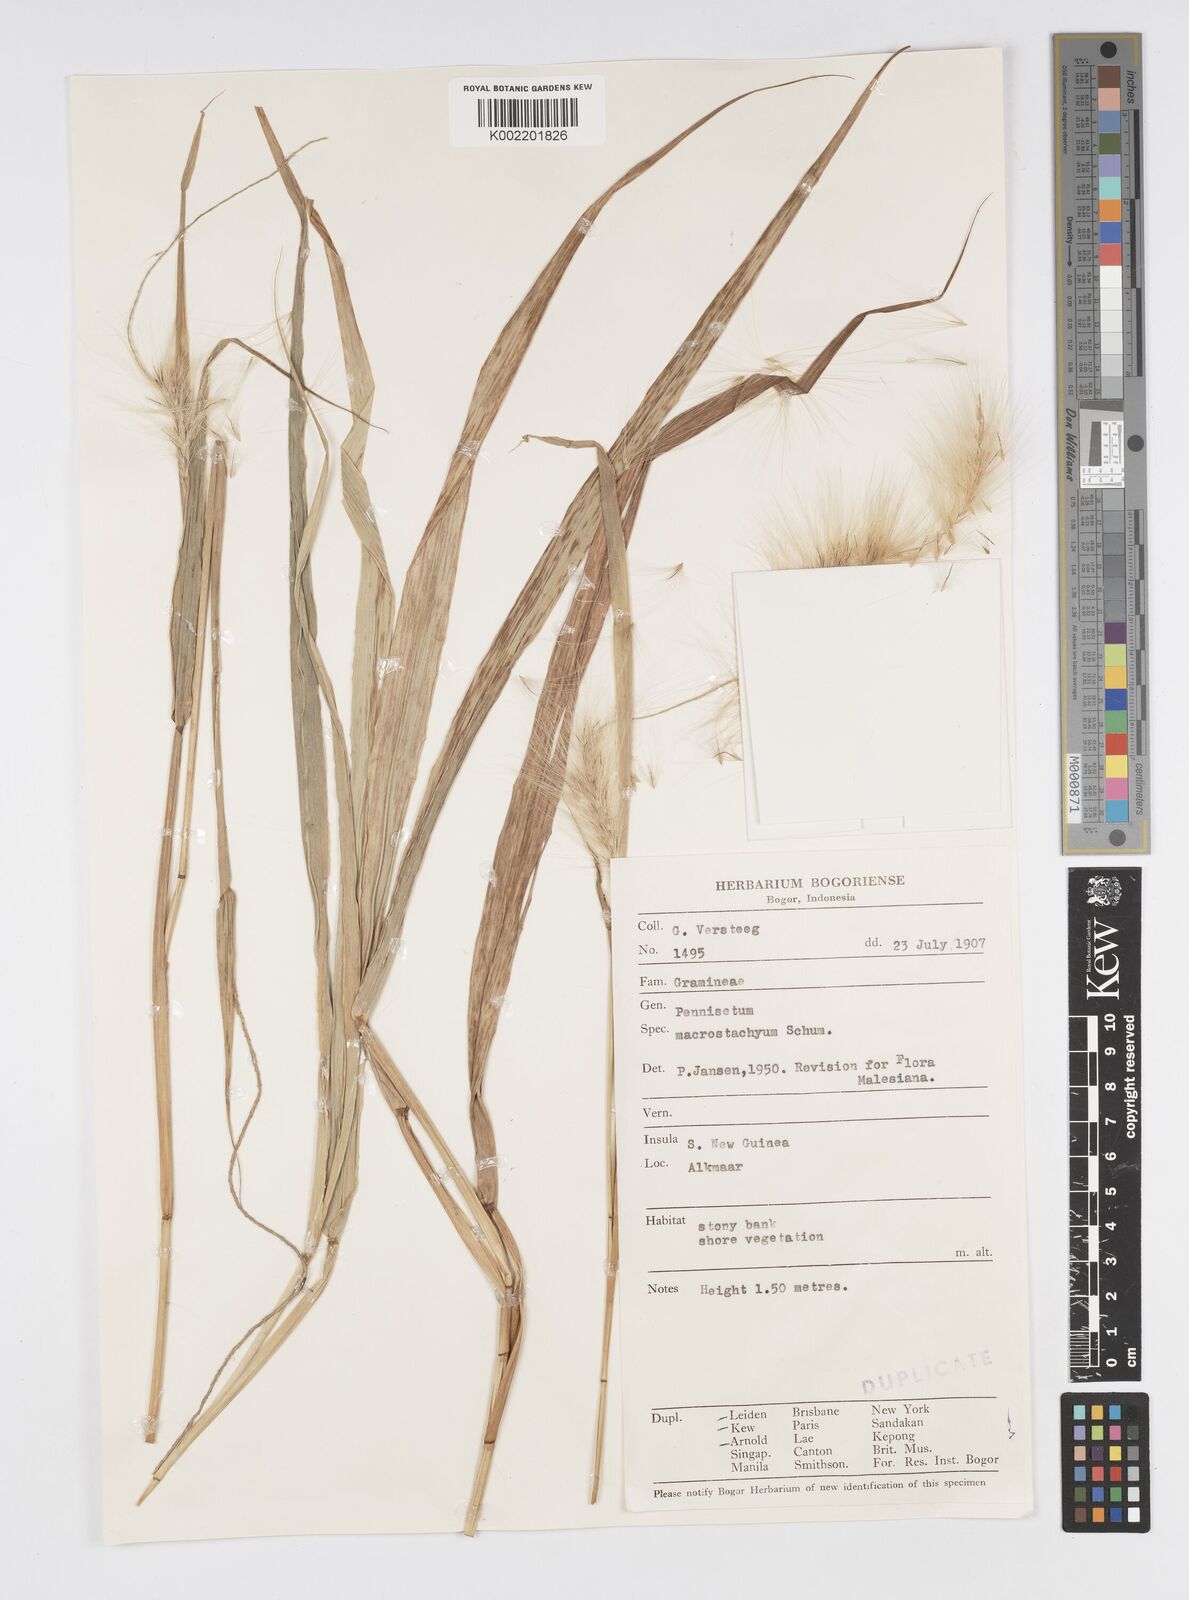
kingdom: Plantae
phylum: Tracheophyta
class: Liliopsida
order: Poales
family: Poaceae
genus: Cenchrus
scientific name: Cenchrus purpureus
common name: Elephant grass
